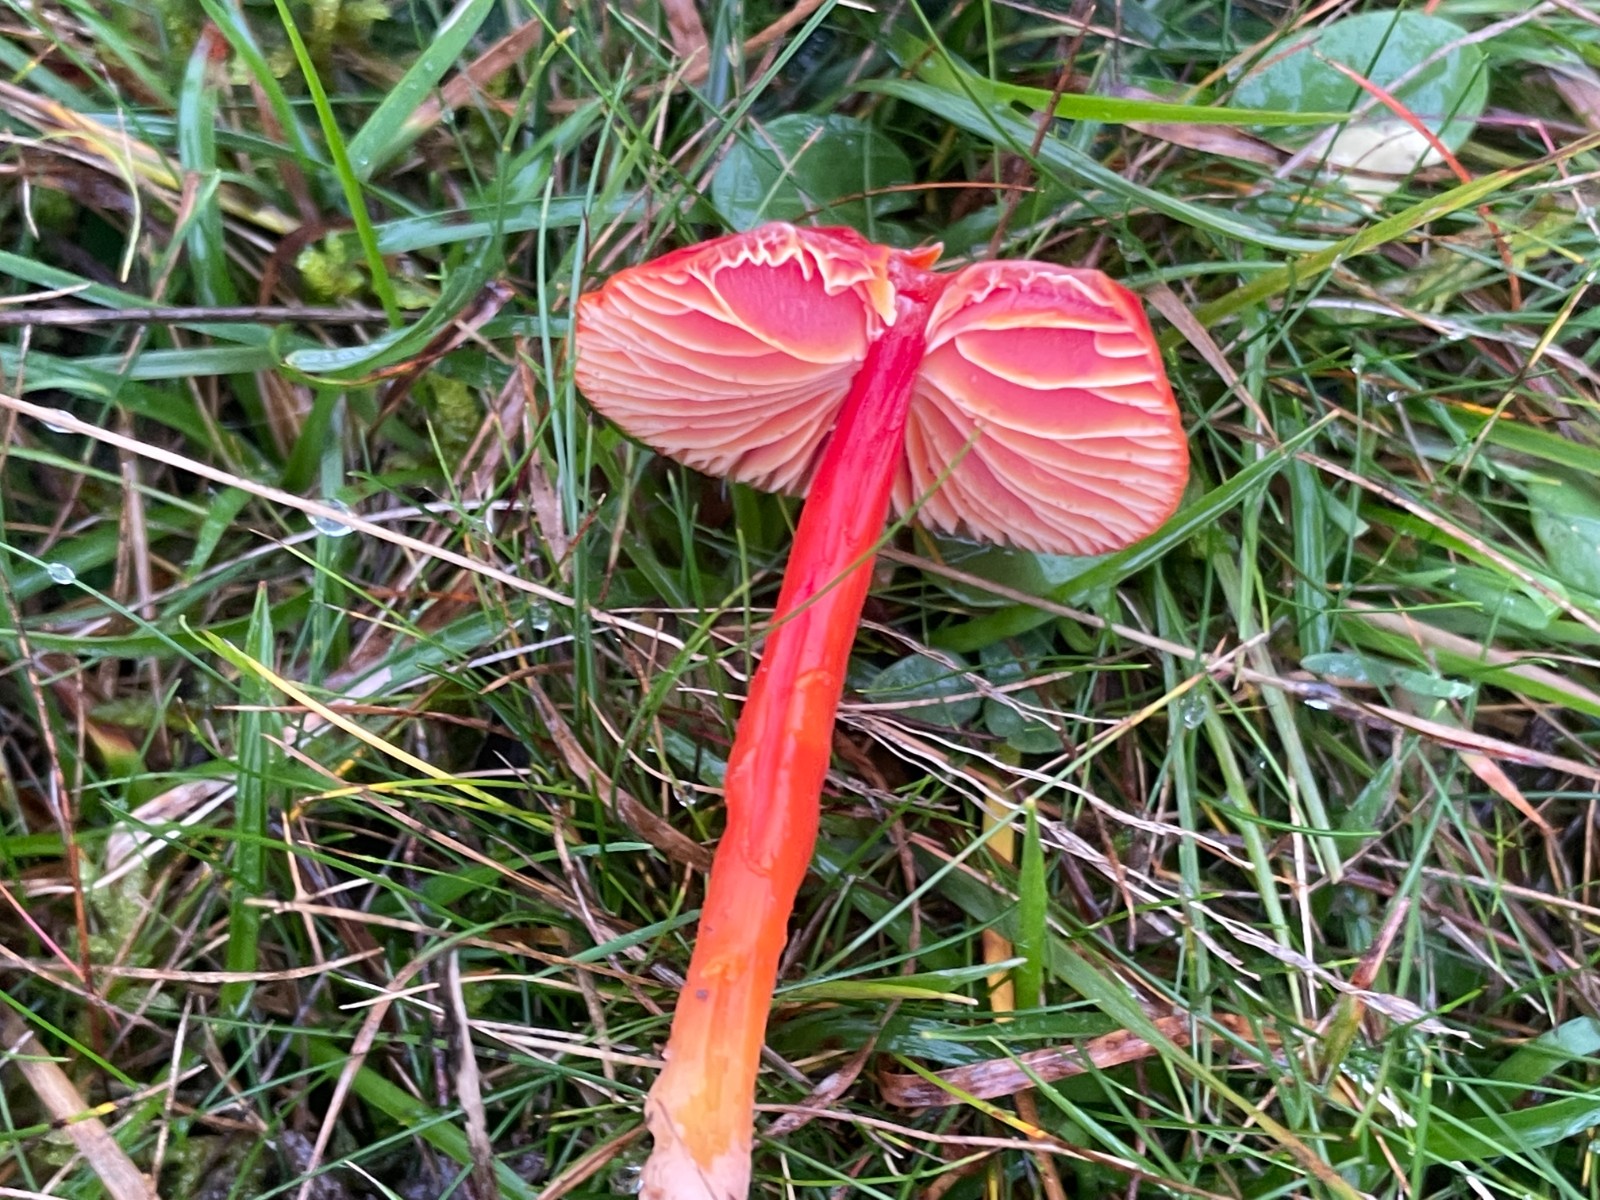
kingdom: Fungi
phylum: Basidiomycota
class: Agaricomycetes
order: Agaricales
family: Hygrophoraceae
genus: Hygrocybe
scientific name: Hygrocybe coccinea
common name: cinnober-vokshat
